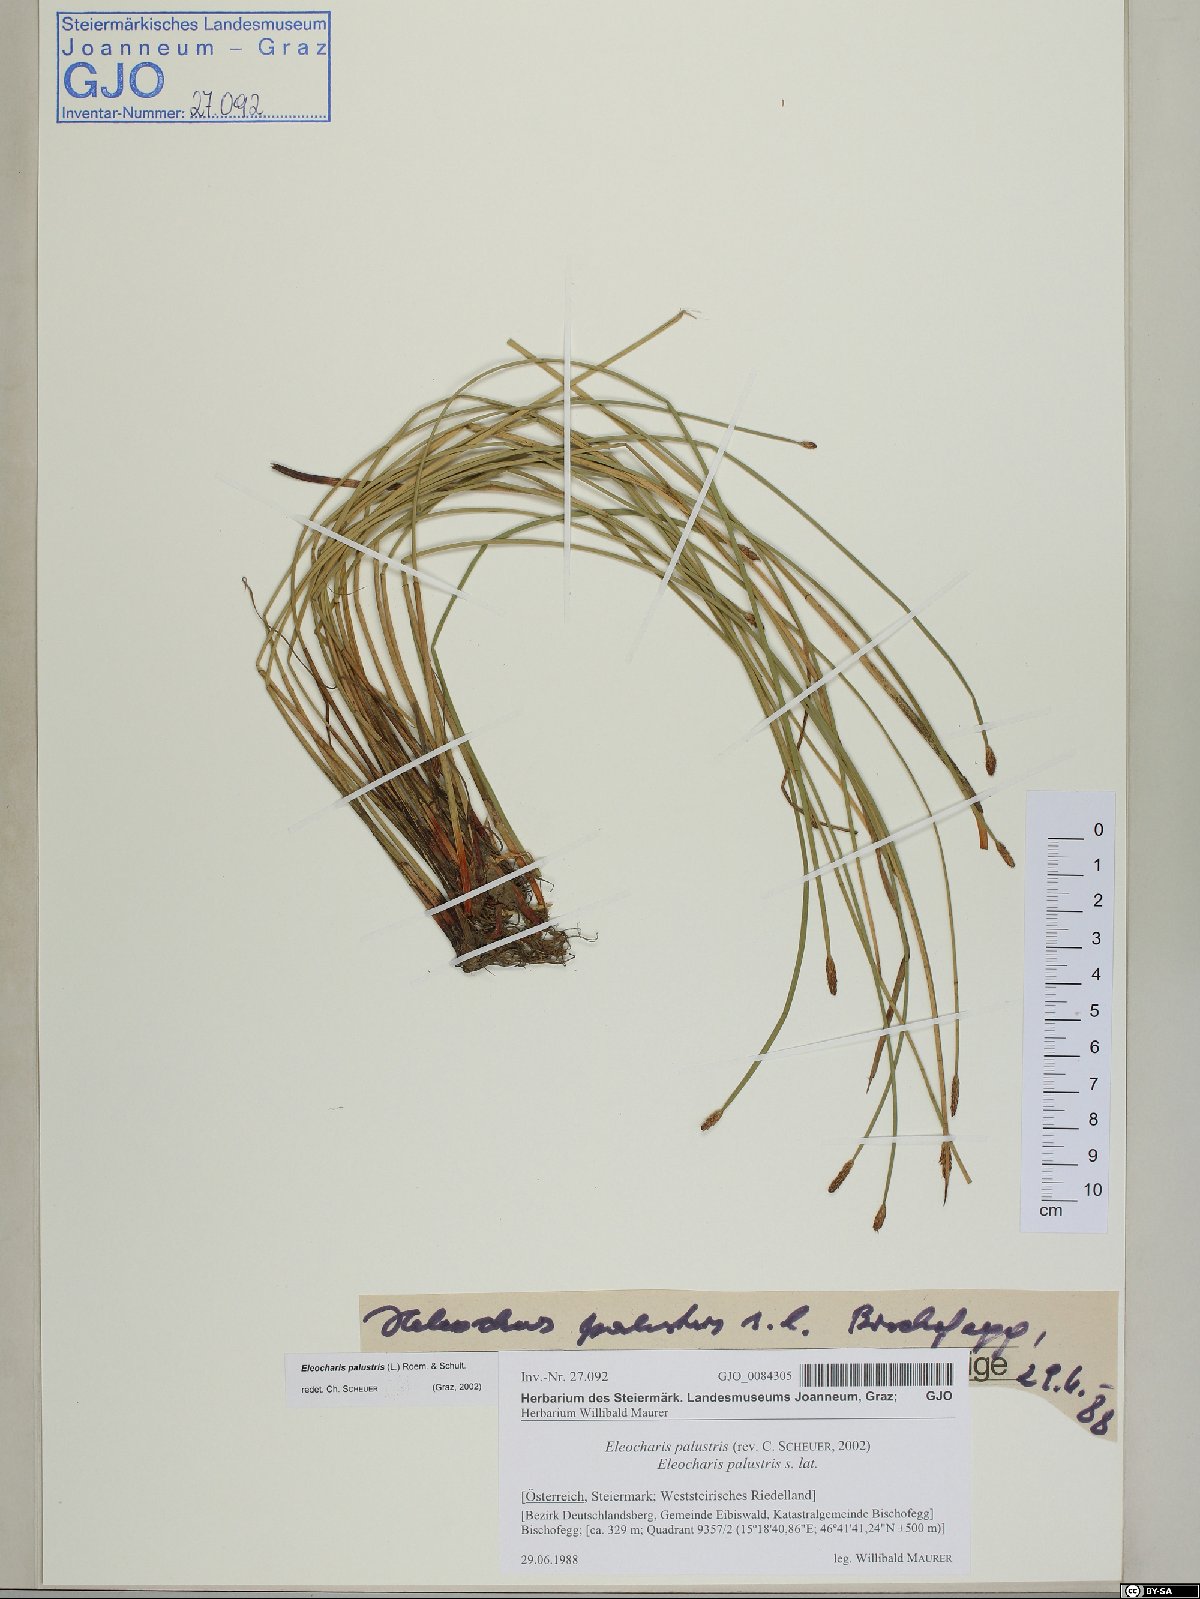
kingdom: Plantae
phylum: Tracheophyta
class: Liliopsida
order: Poales
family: Cyperaceae
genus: Eleocharis
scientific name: Eleocharis palustris
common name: Common spike-rush
